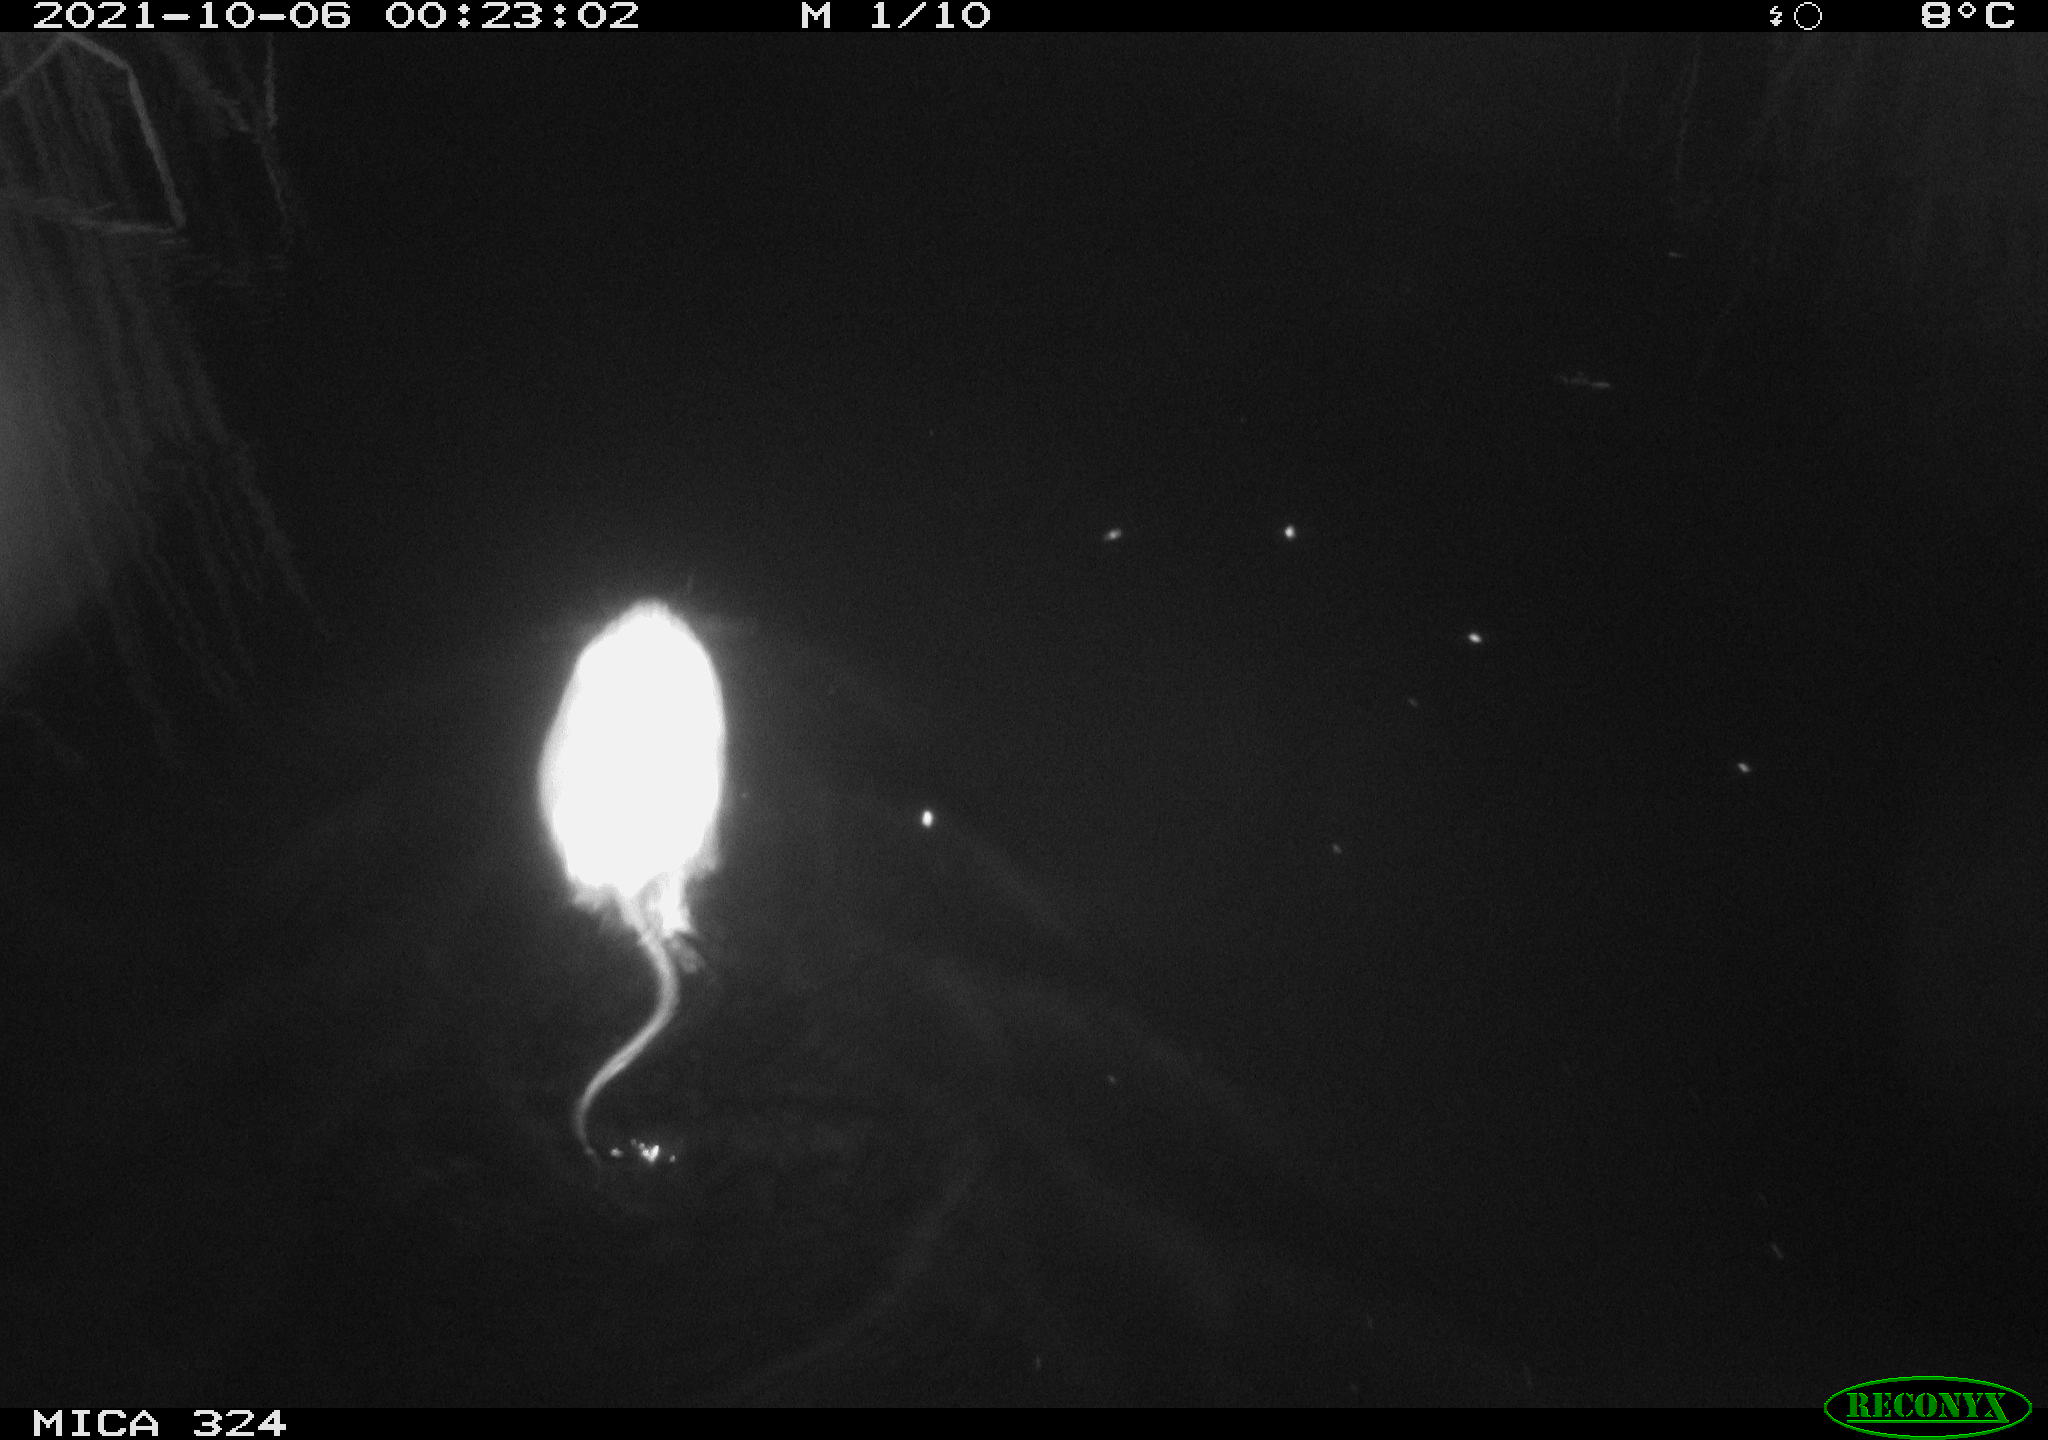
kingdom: Animalia
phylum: Chordata
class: Mammalia
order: Rodentia
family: Cricetidae
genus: Ondatra
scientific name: Ondatra zibethicus
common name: Muskrat
